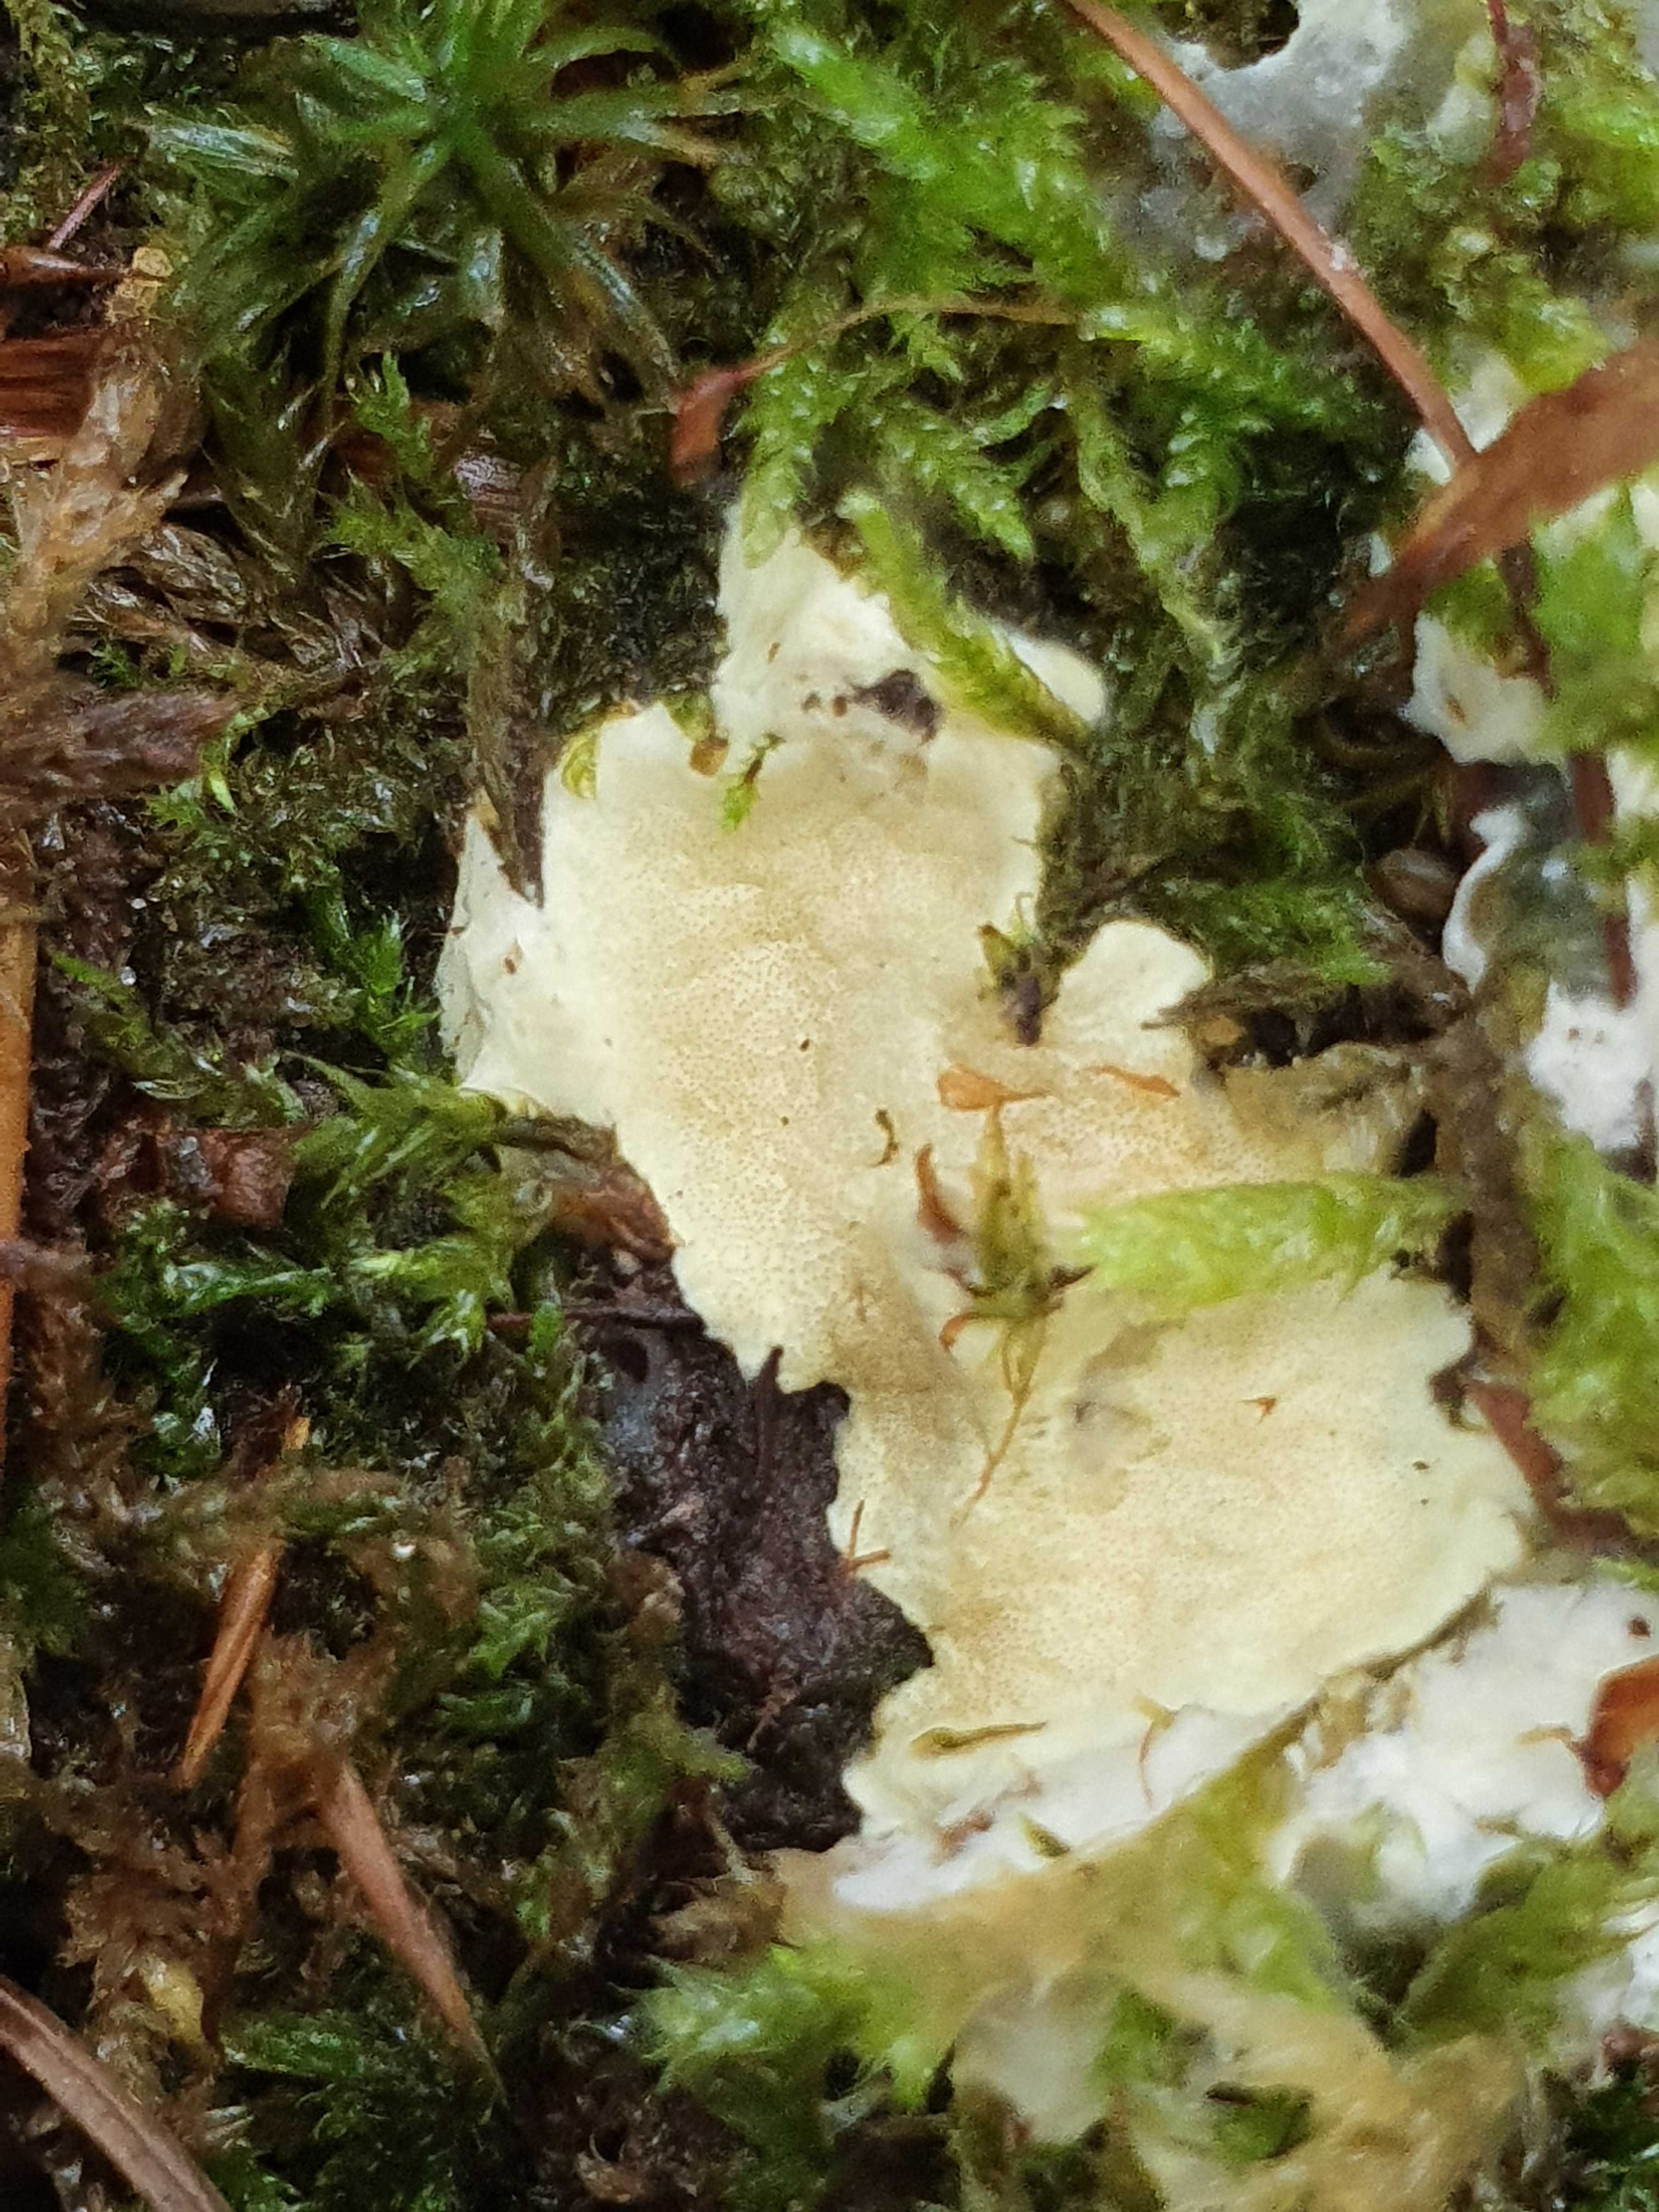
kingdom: Fungi
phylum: Ascomycota
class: Sordariomycetes
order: Hypocreales
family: Hypocreaceae
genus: Trichoderma
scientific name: Trichoderma citrinum
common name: udbredt kødkerne
